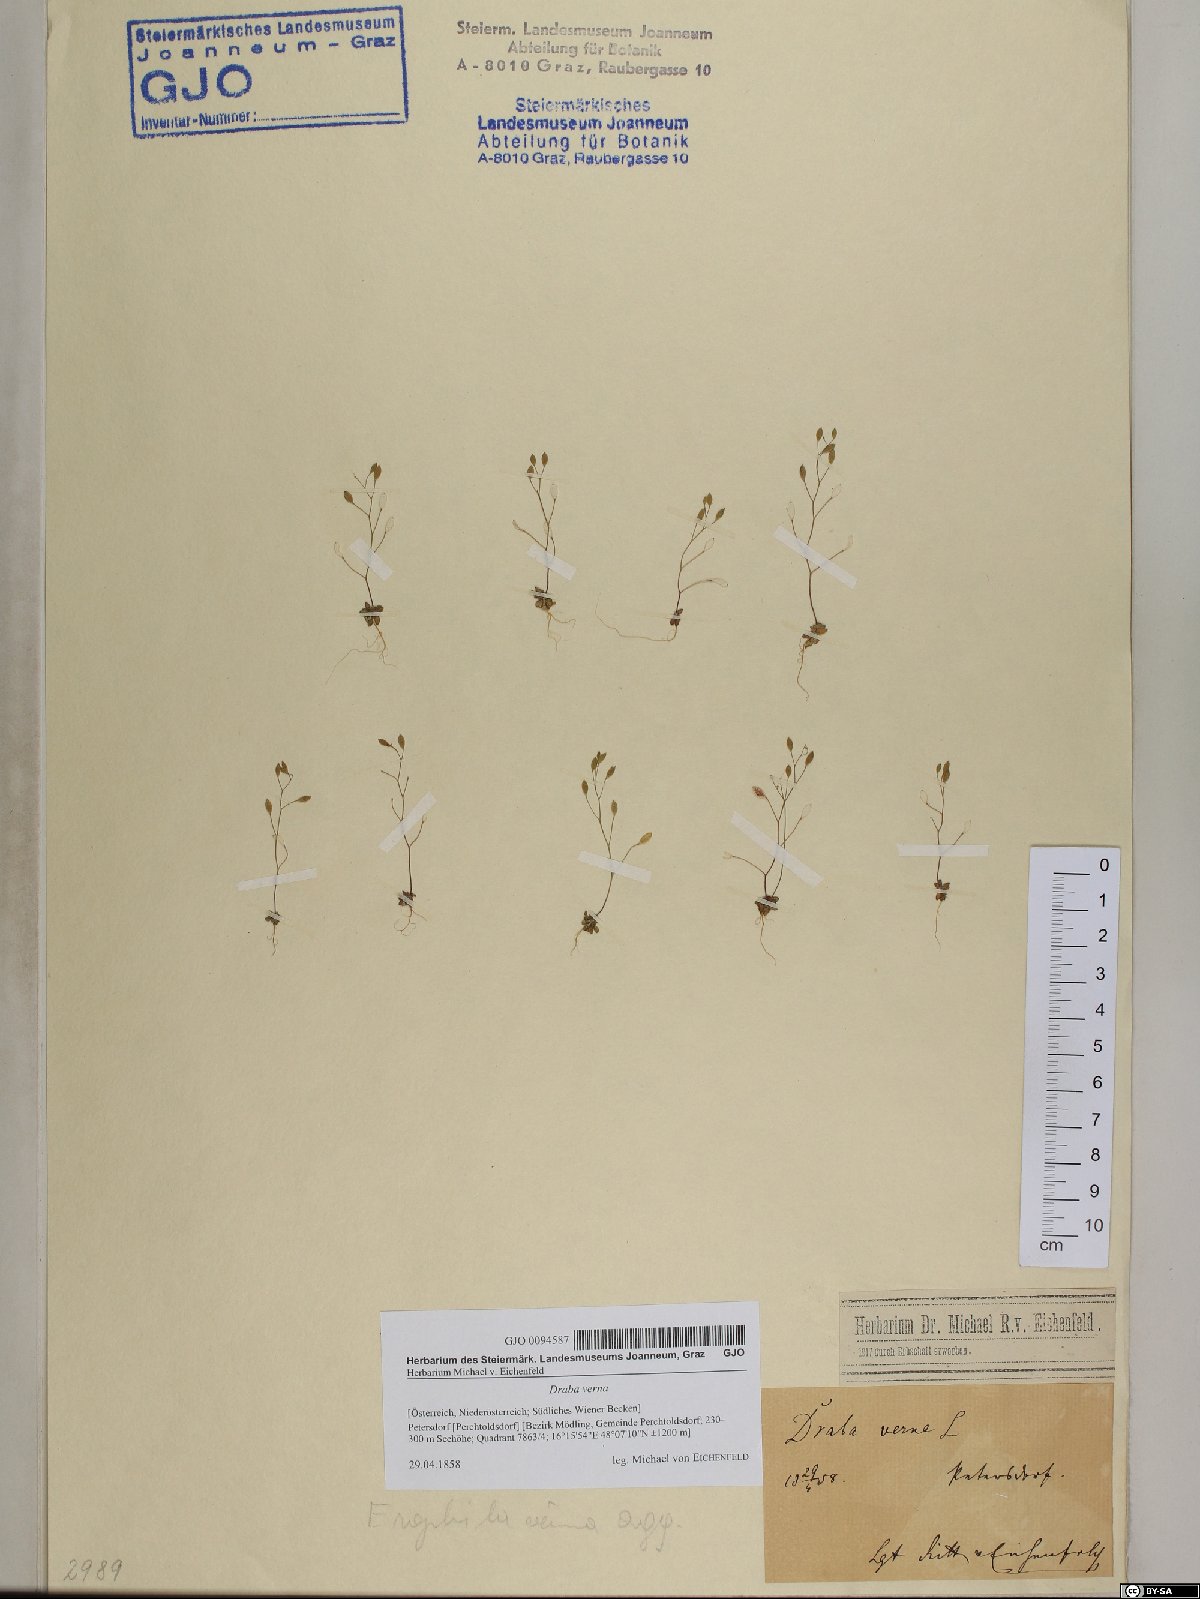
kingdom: Plantae
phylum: Tracheophyta
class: Magnoliopsida
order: Brassicales
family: Brassicaceae
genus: Draba
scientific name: Draba verna
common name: Spring draba
